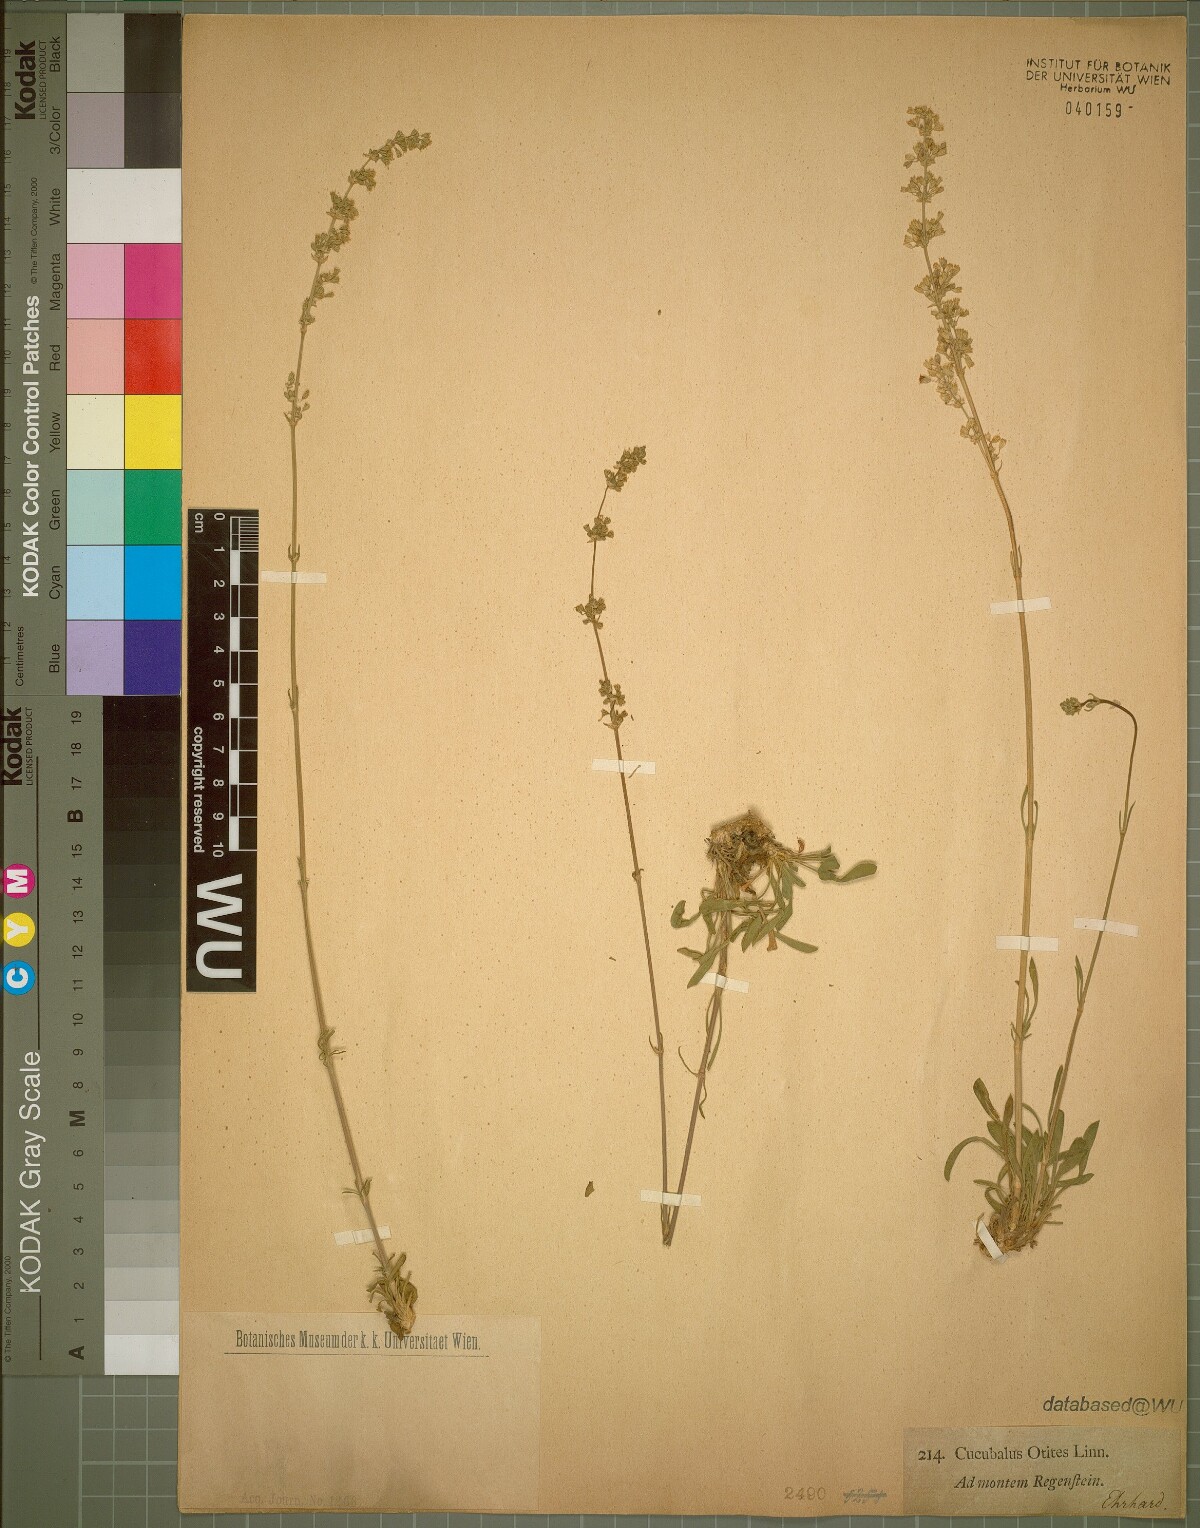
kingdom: Plantae
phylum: Tracheophyta
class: Magnoliopsida
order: Caryophyllales
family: Caryophyllaceae
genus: Silene
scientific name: Silene otites
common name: Spanish catchfly
